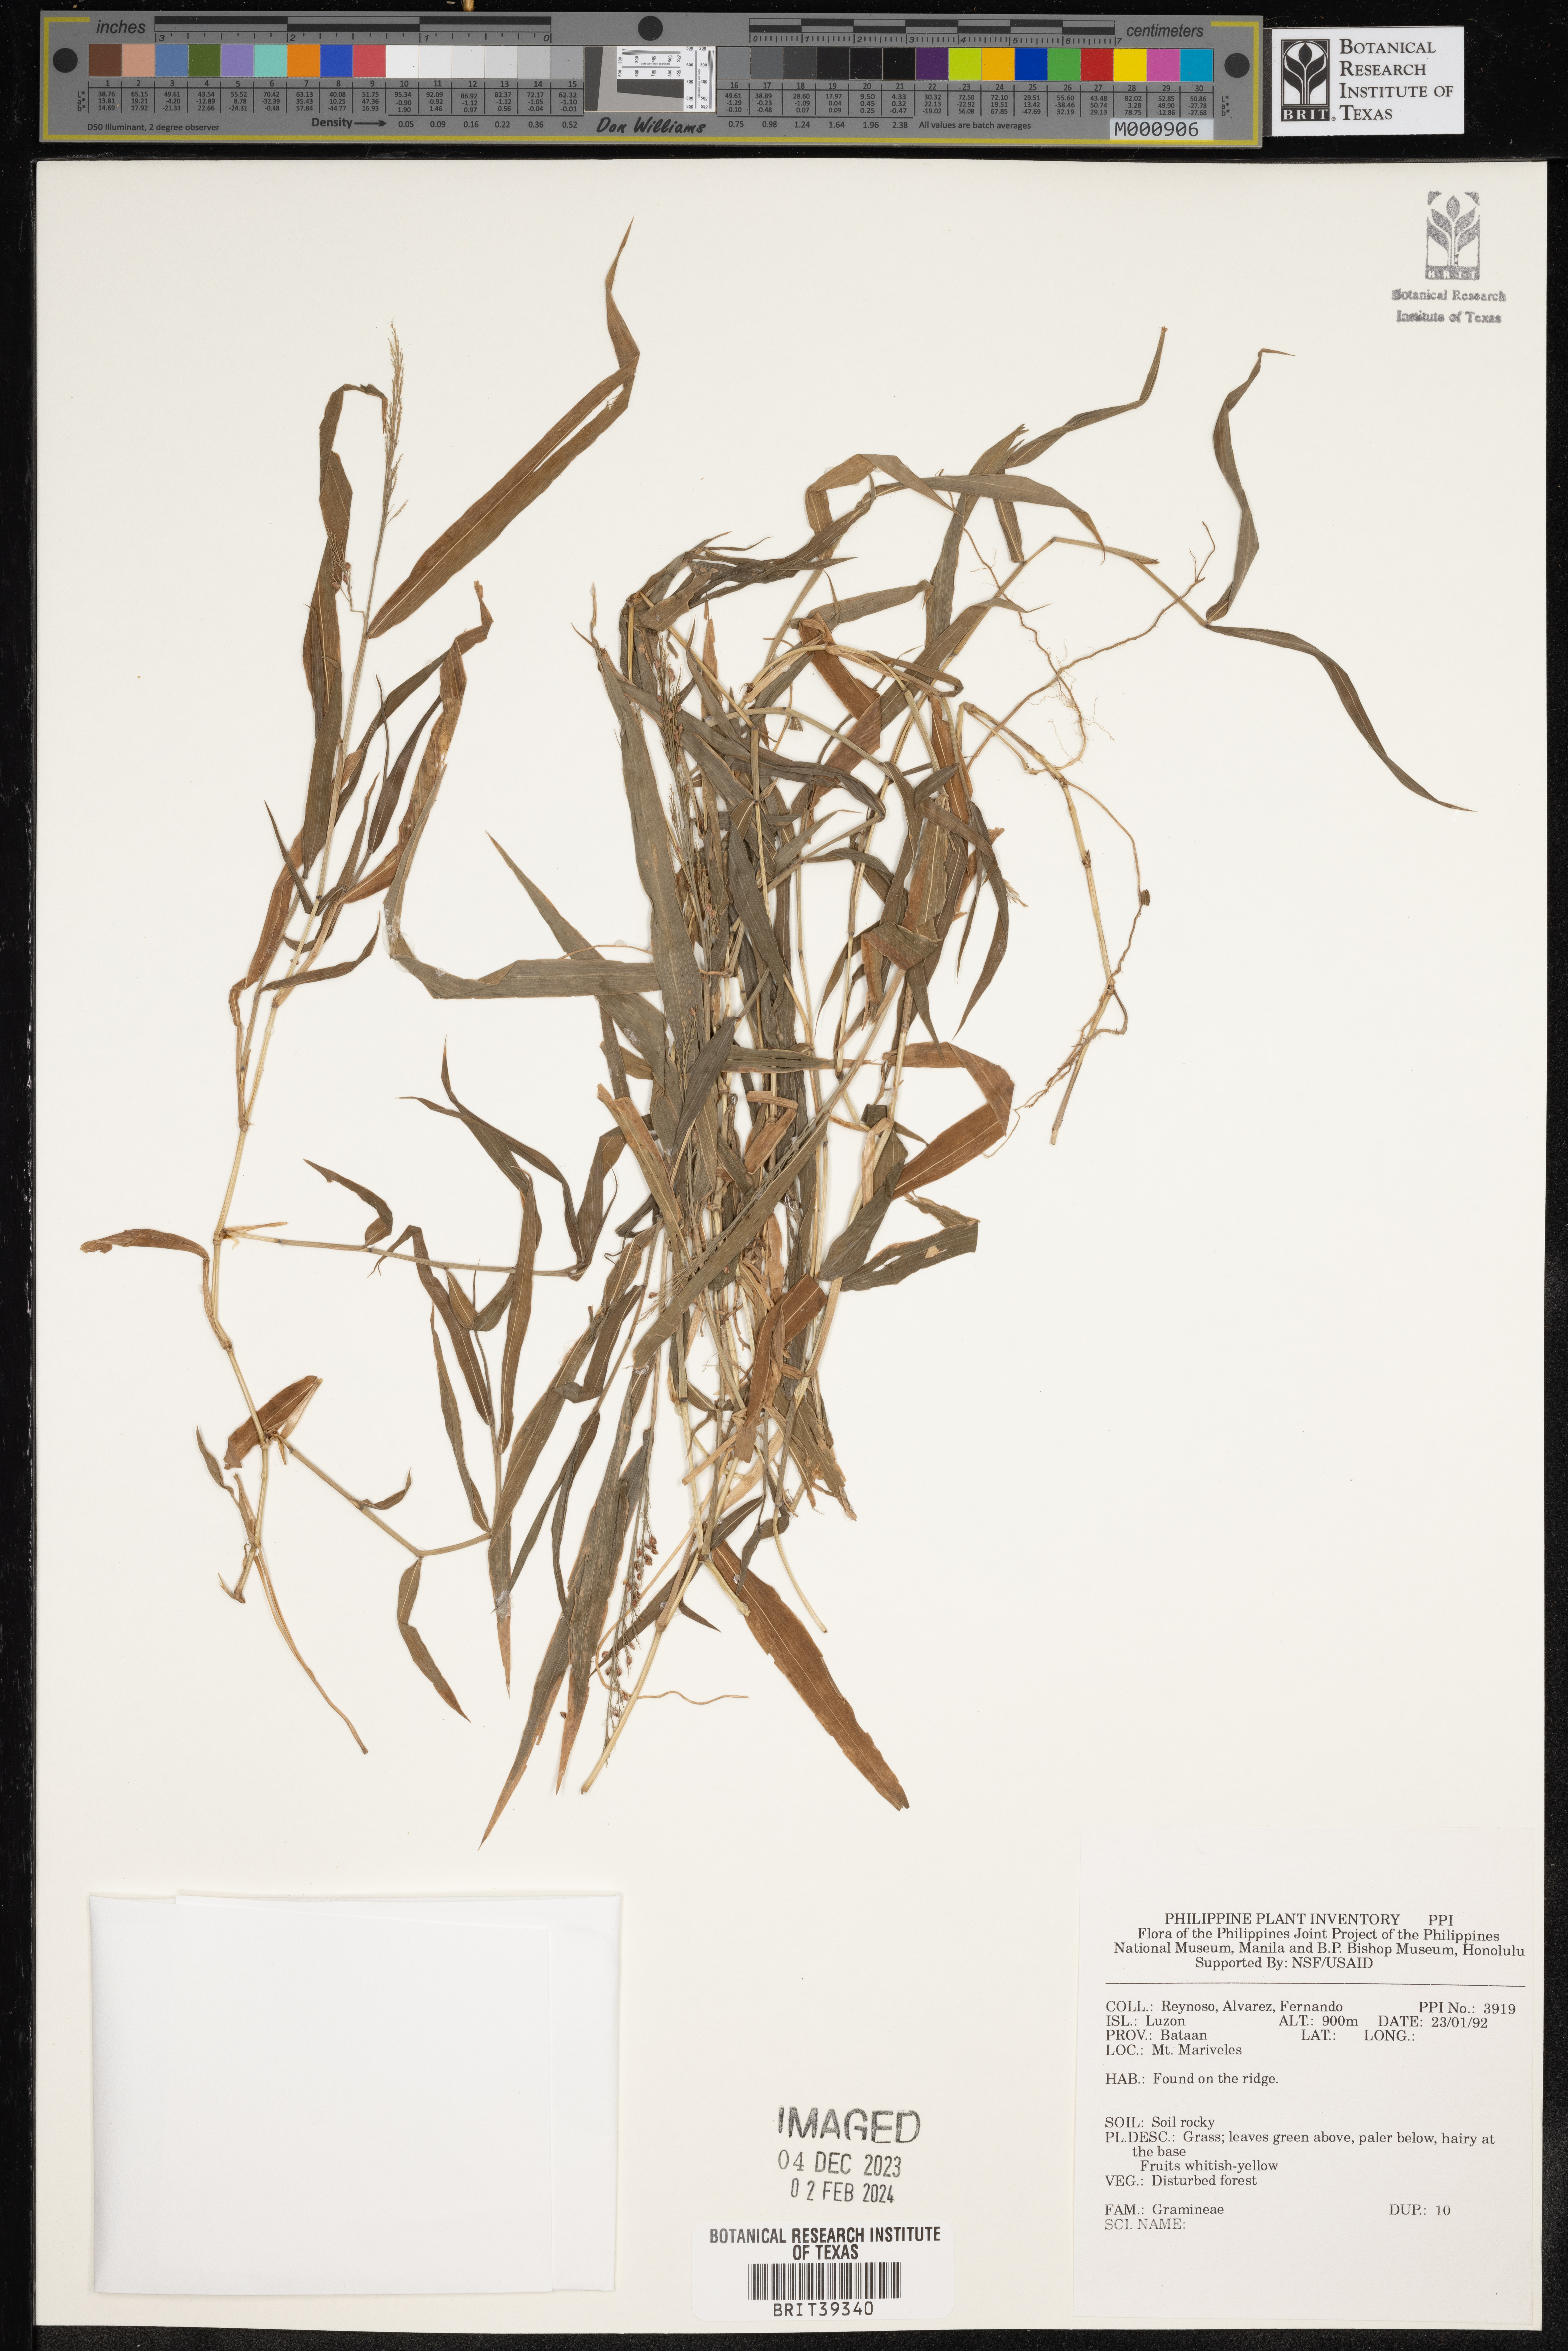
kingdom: Plantae
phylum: Tracheophyta
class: Liliopsida
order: Poales
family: Poaceae
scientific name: Poaceae
